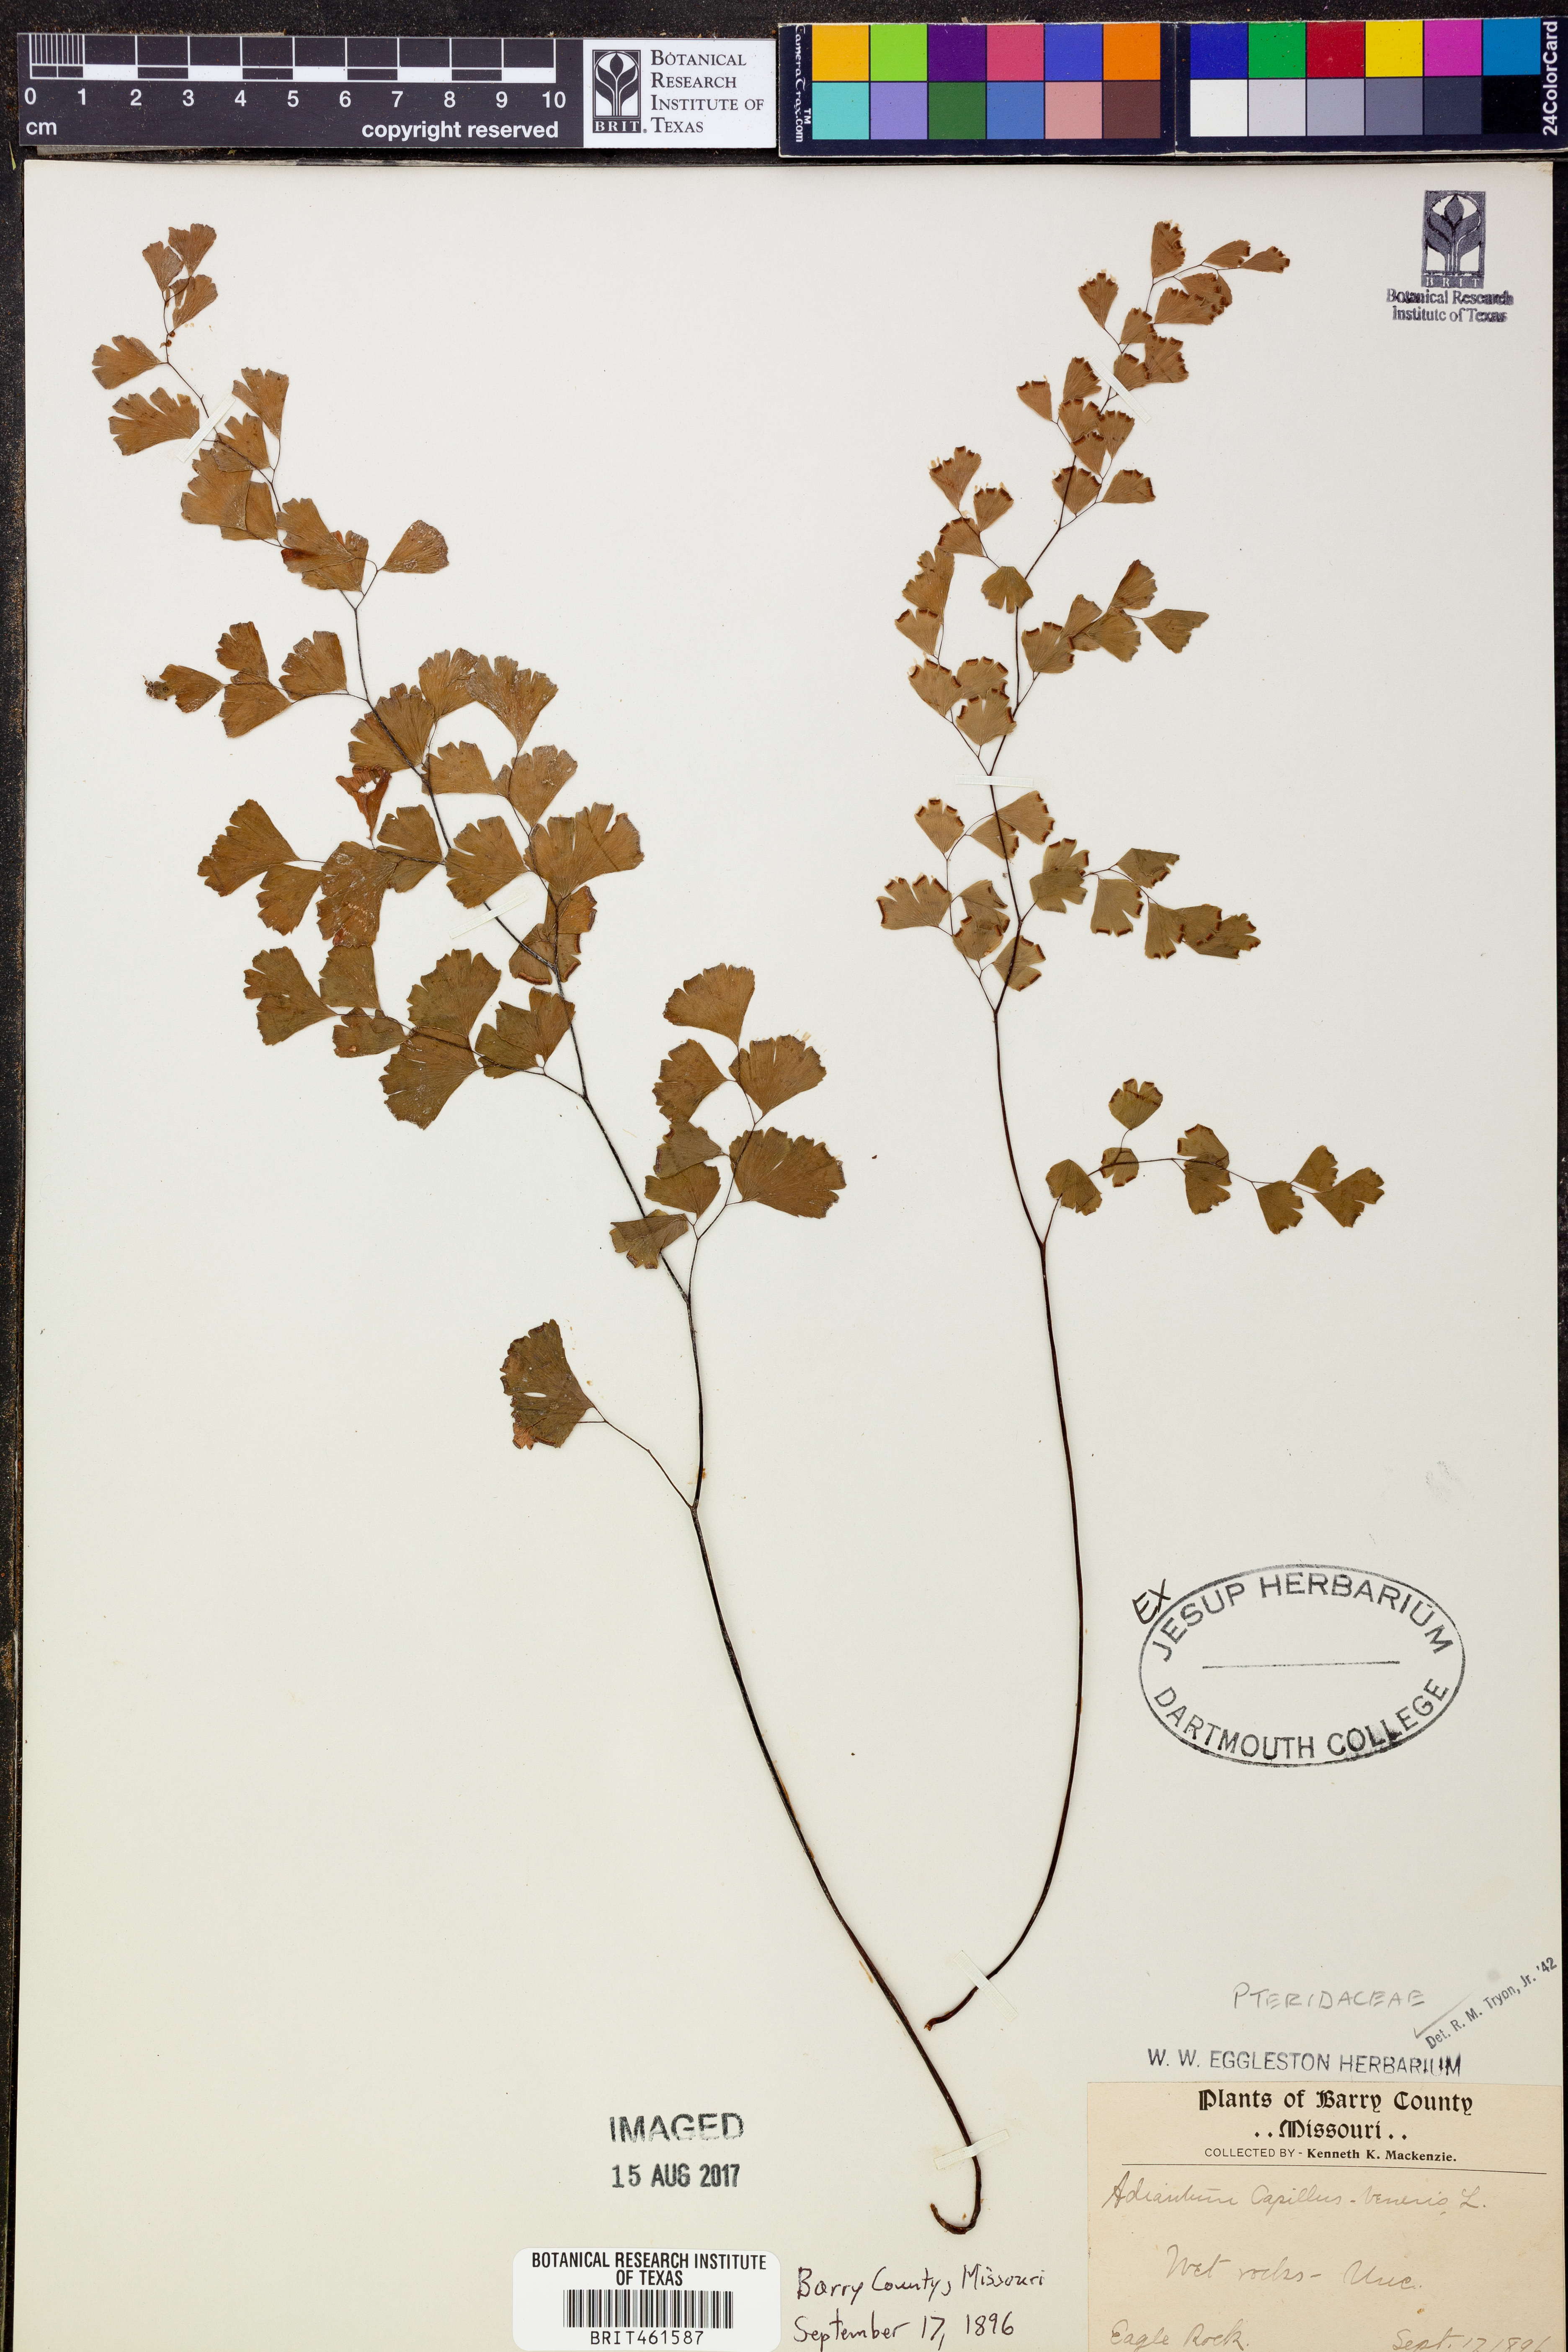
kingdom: Plantae
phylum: Tracheophyta
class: Polypodiopsida
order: Polypodiales
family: Pteridaceae
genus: Adiantum
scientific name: Adiantum capillus-veneris
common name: Maidenhair fern
